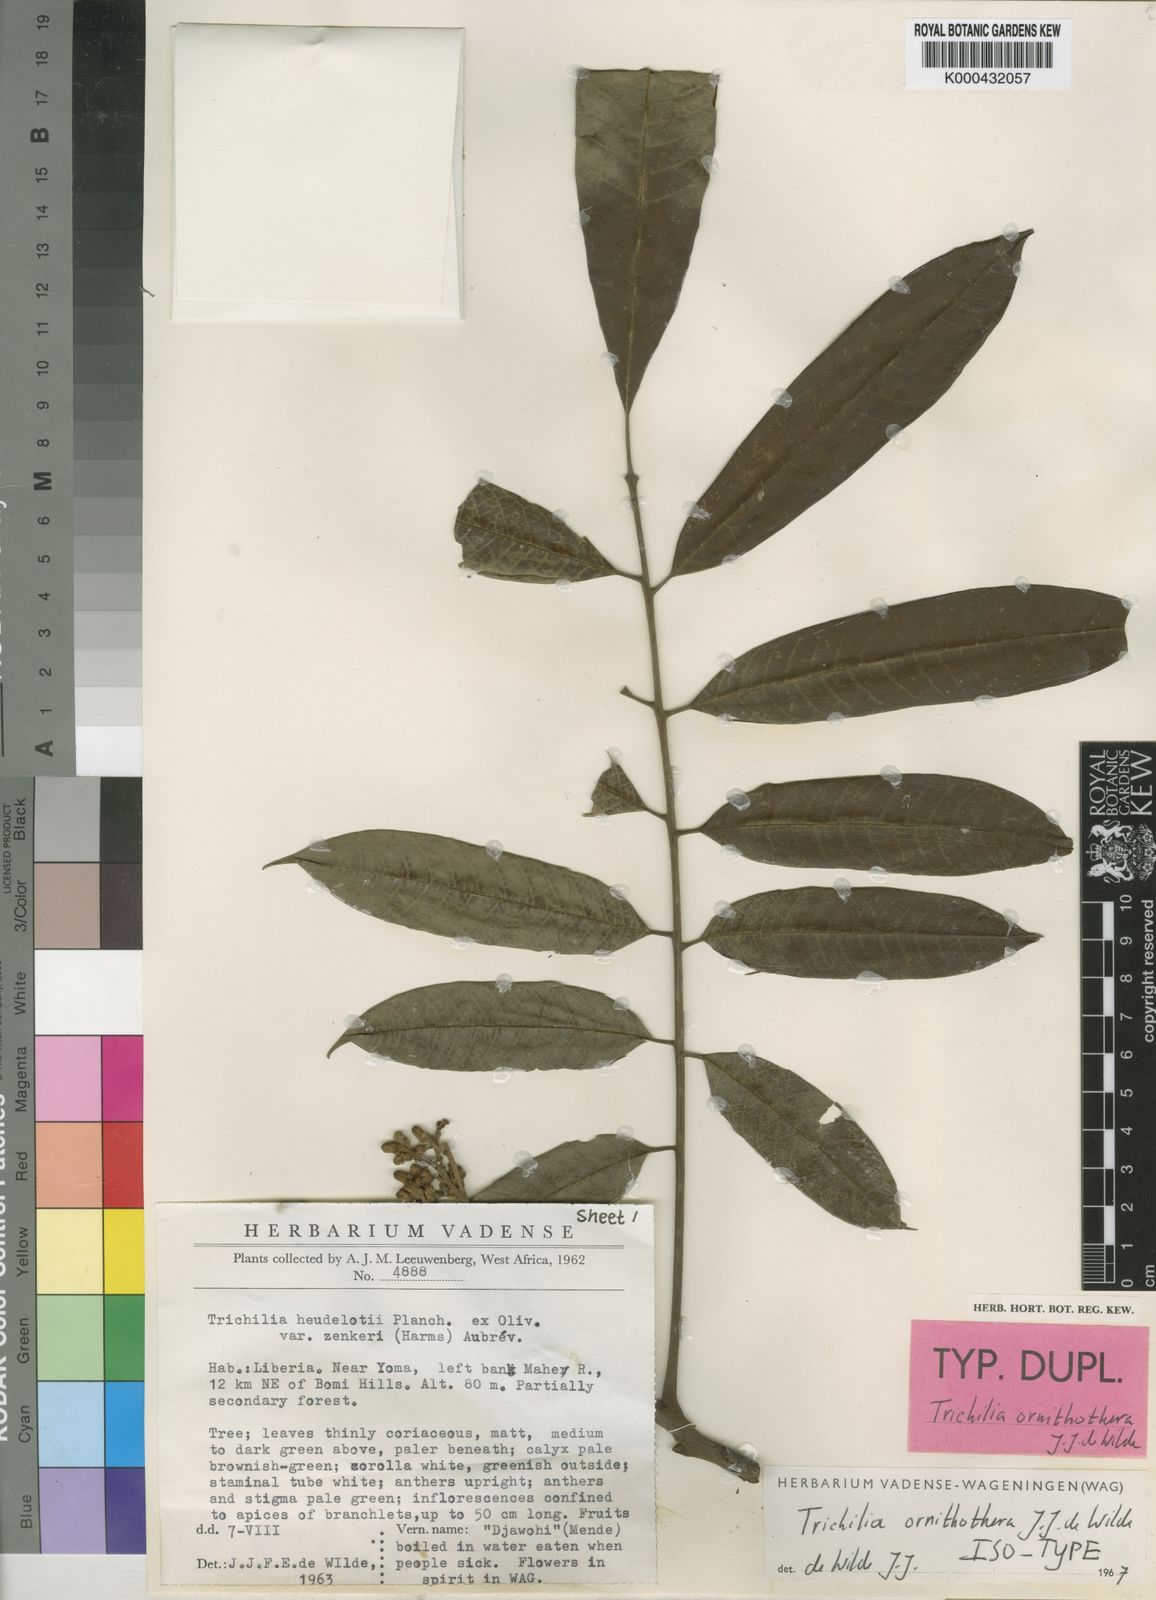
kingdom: Plantae
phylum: Tracheophyta
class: Magnoliopsida
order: Sapindales
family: Meliaceae
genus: Trichilia
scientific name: Trichilia ornithothera
